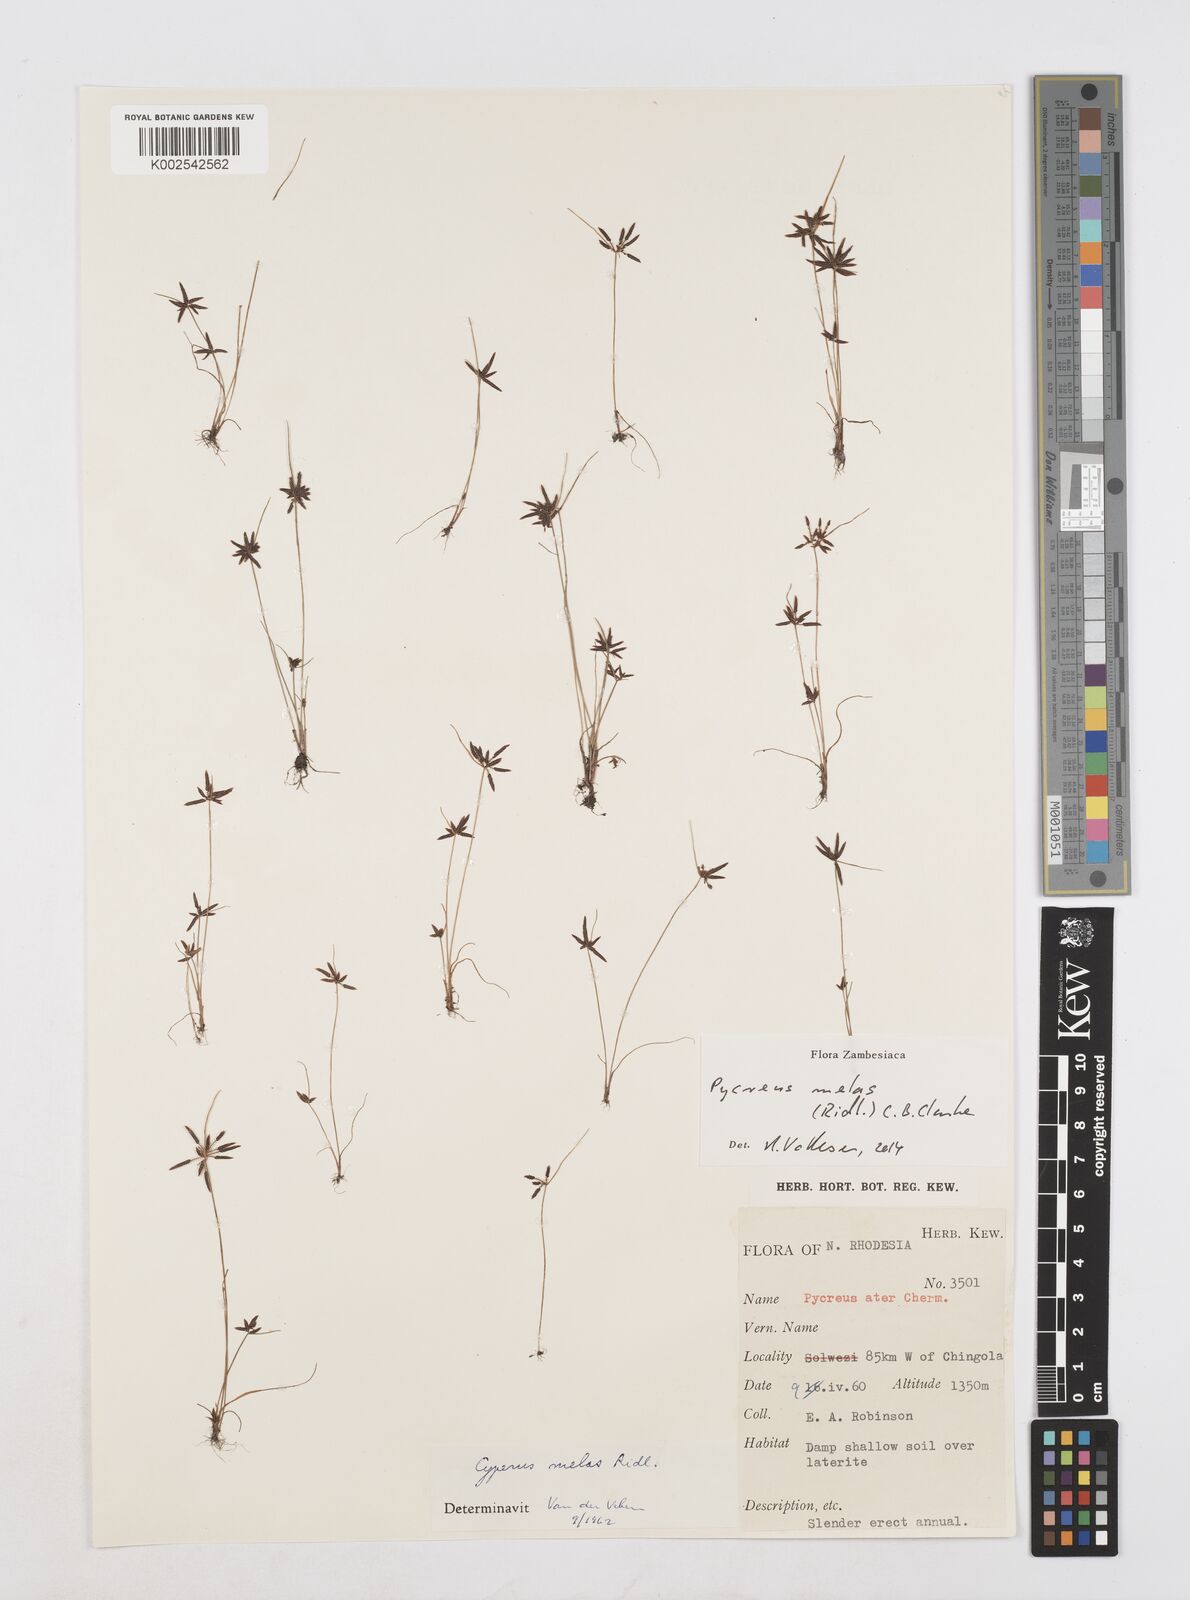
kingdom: Plantae
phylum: Tracheophyta
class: Liliopsida
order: Poales
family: Cyperaceae
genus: Cyperus
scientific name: Cyperus melas
